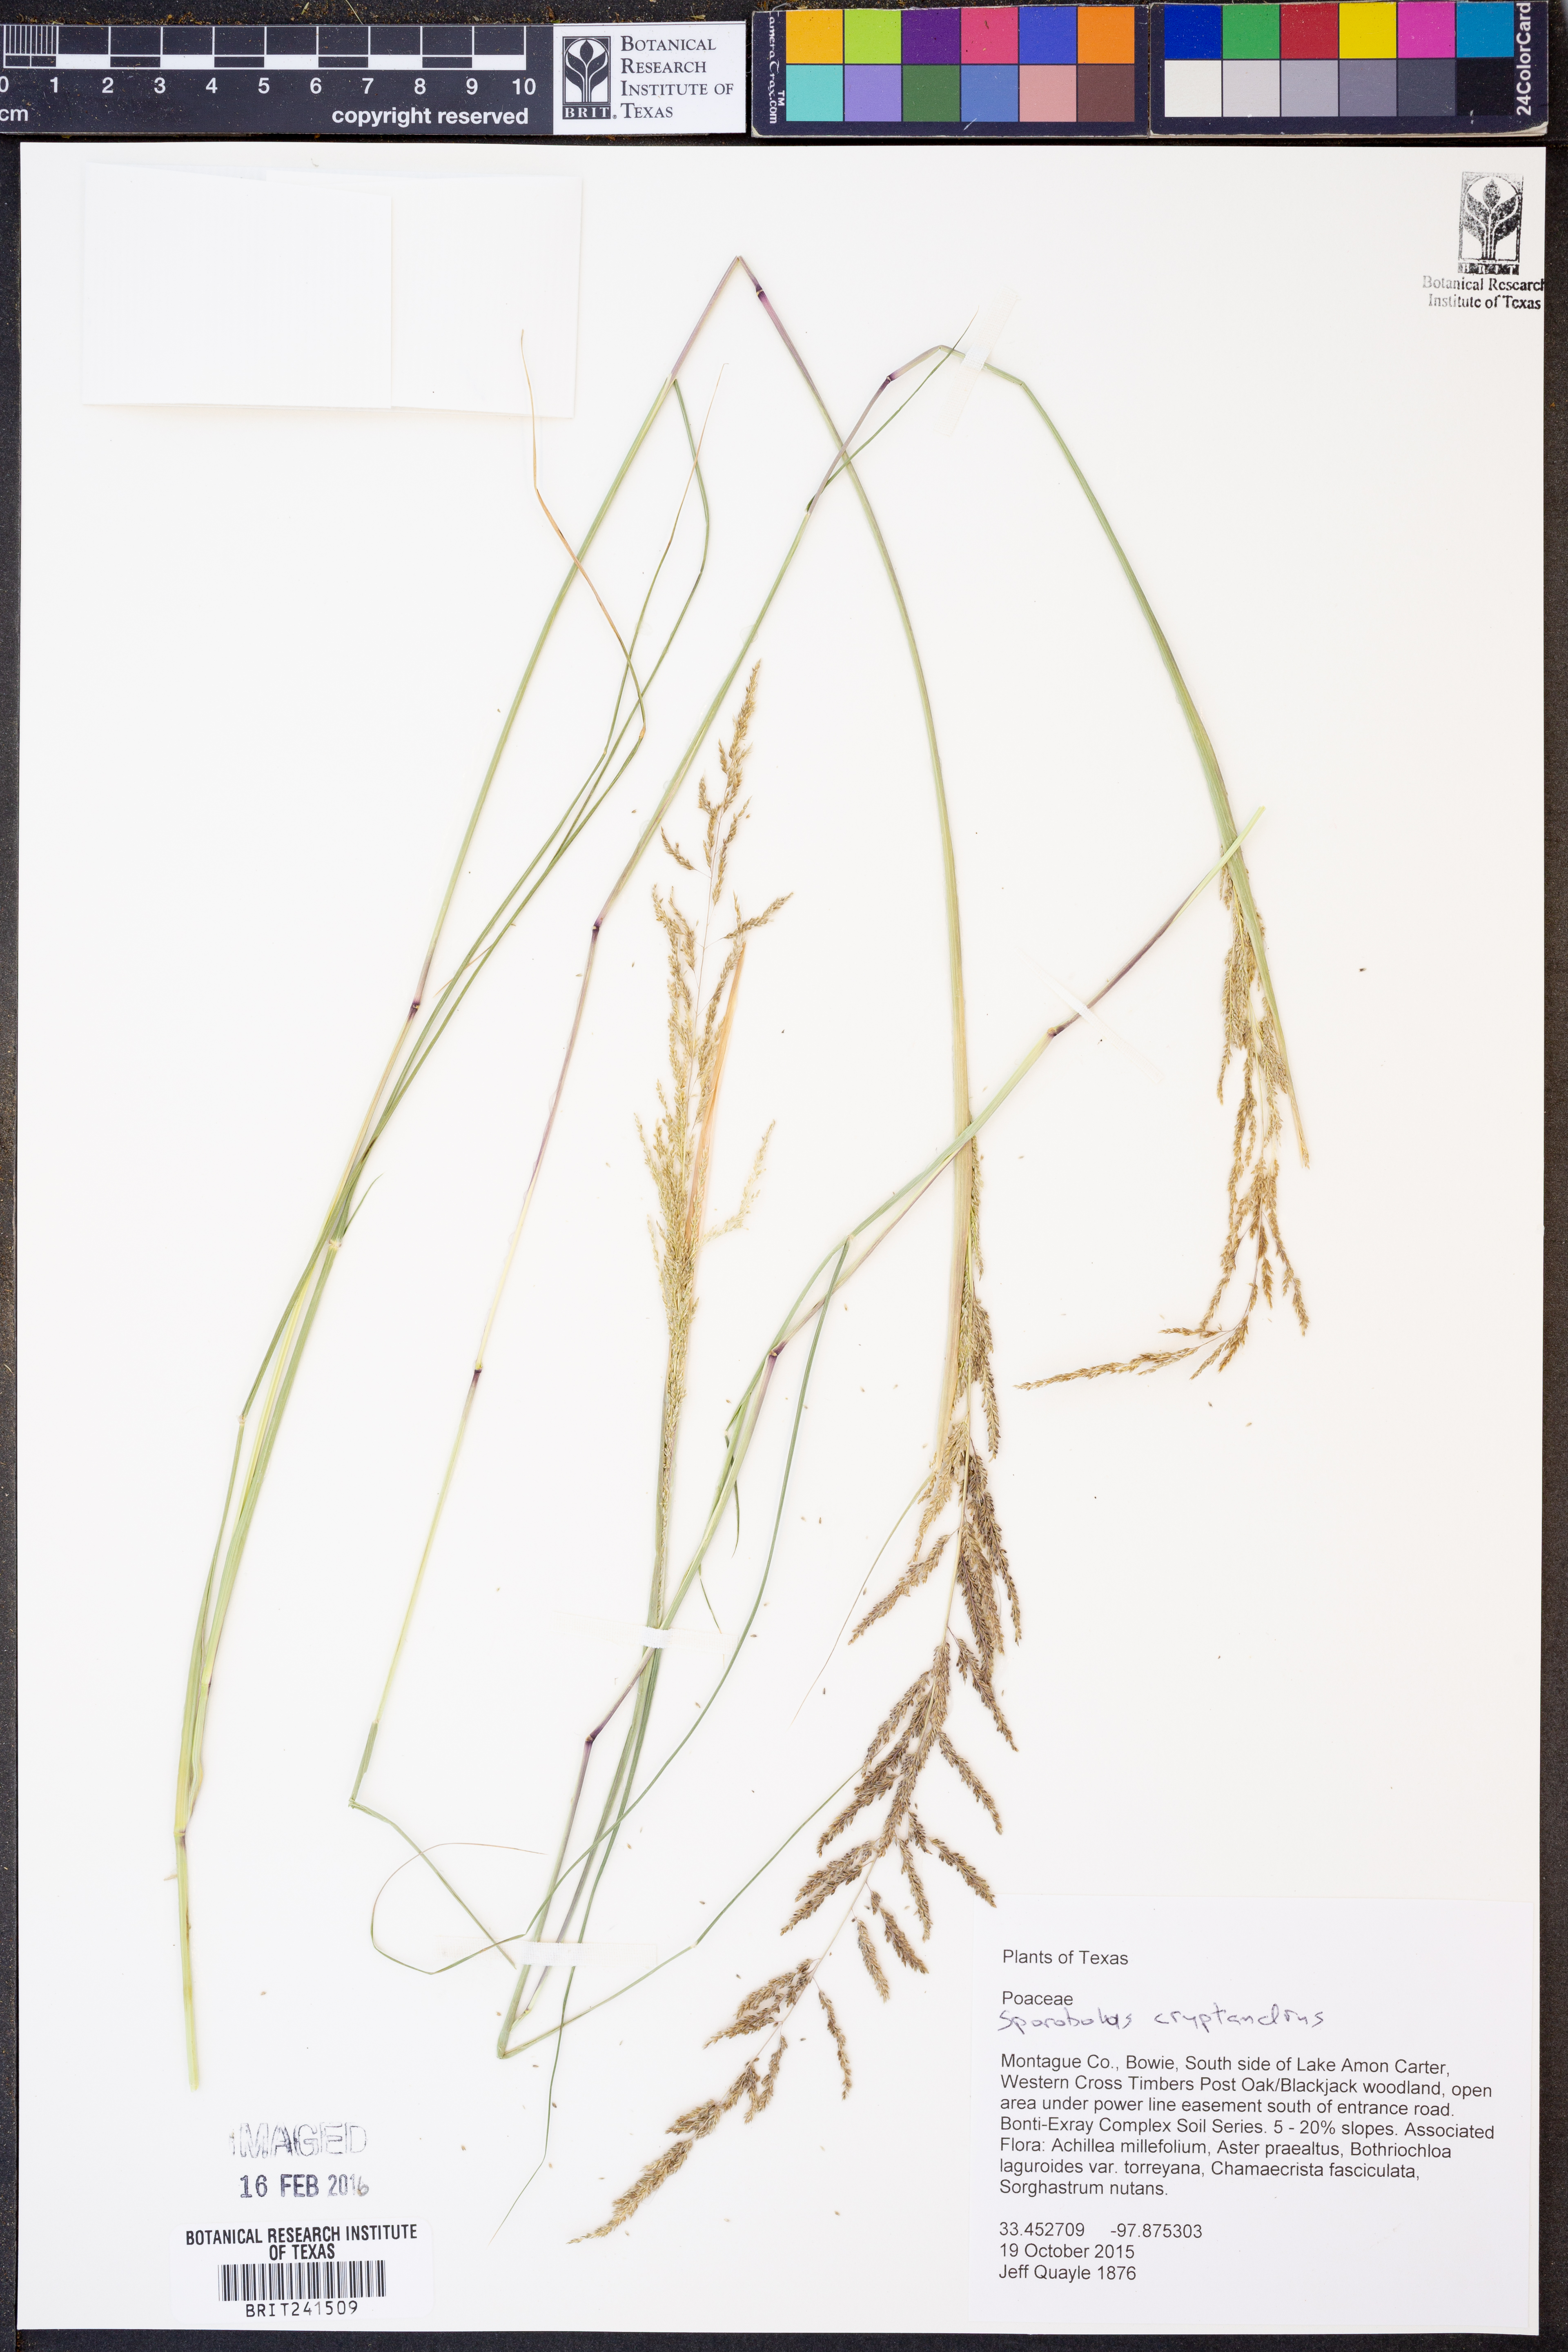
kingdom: Plantae
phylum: Tracheophyta
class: Liliopsida
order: Poales
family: Poaceae
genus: Sporobolus
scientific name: Sporobolus cryptandrus
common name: Sand dropseed
